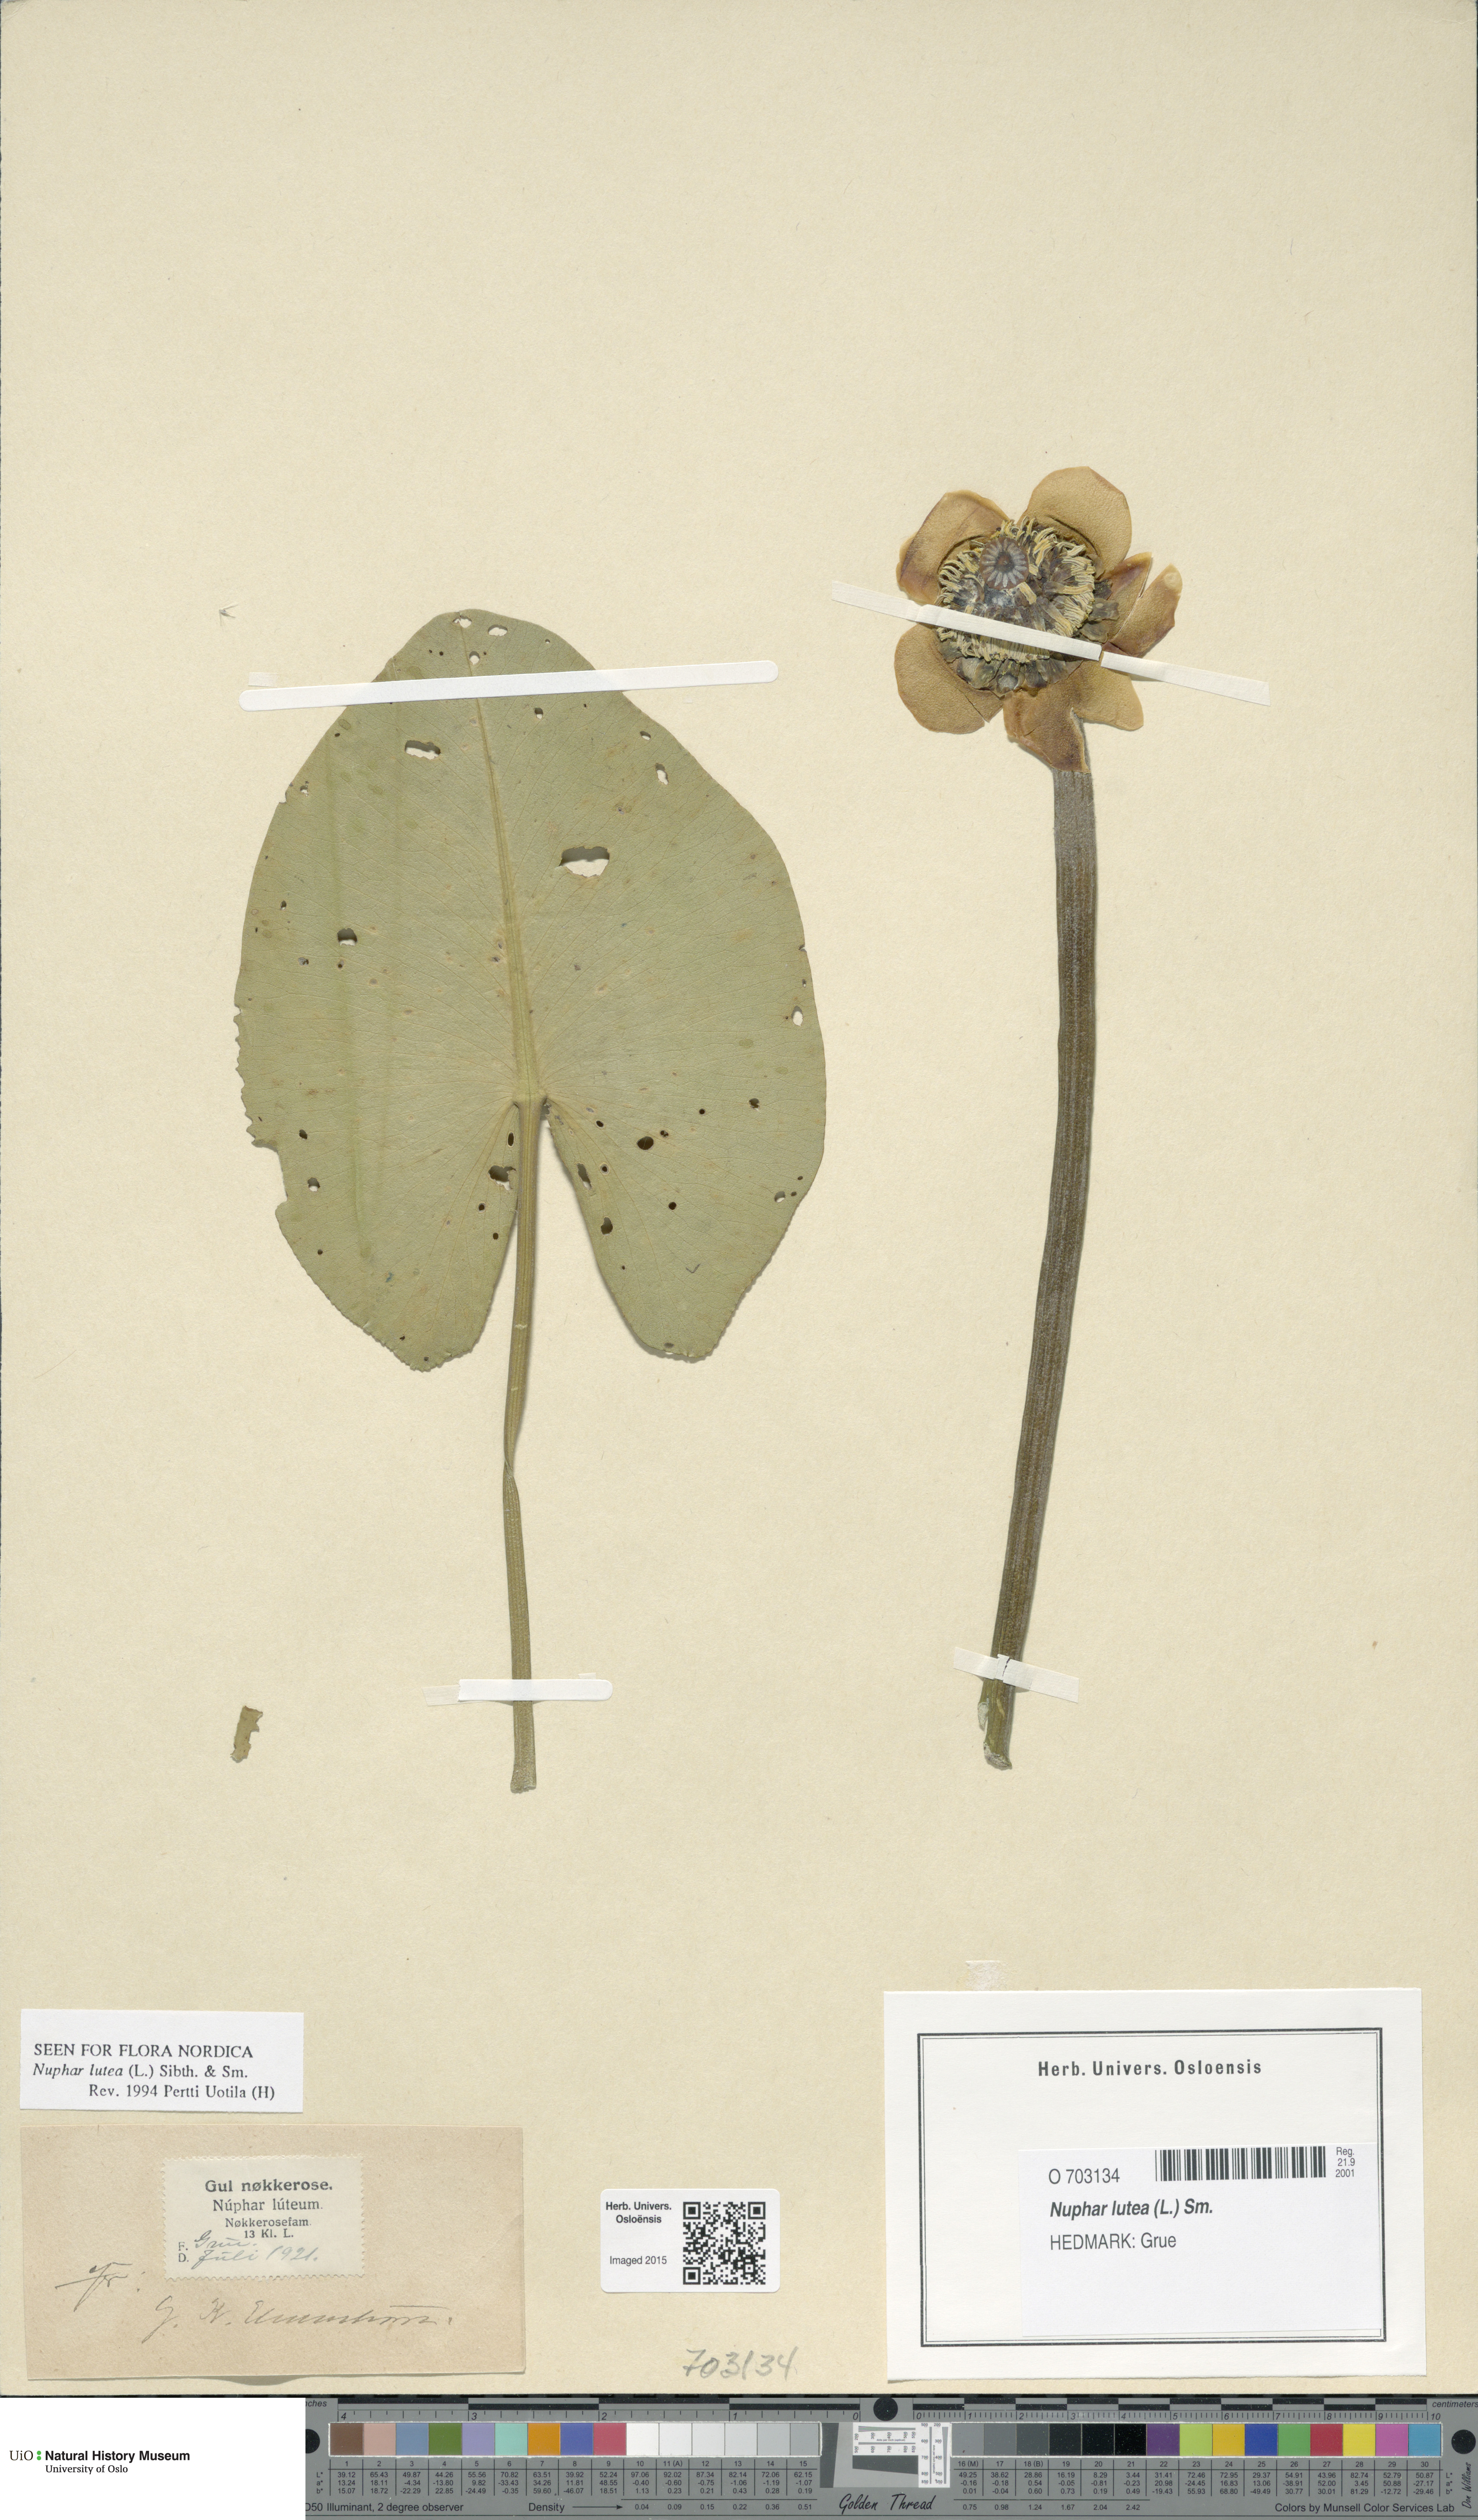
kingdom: Plantae
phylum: Tracheophyta
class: Magnoliopsida
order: Nymphaeales
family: Nymphaeaceae
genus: Nuphar
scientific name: Nuphar lutea
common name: Yellow water-lily
